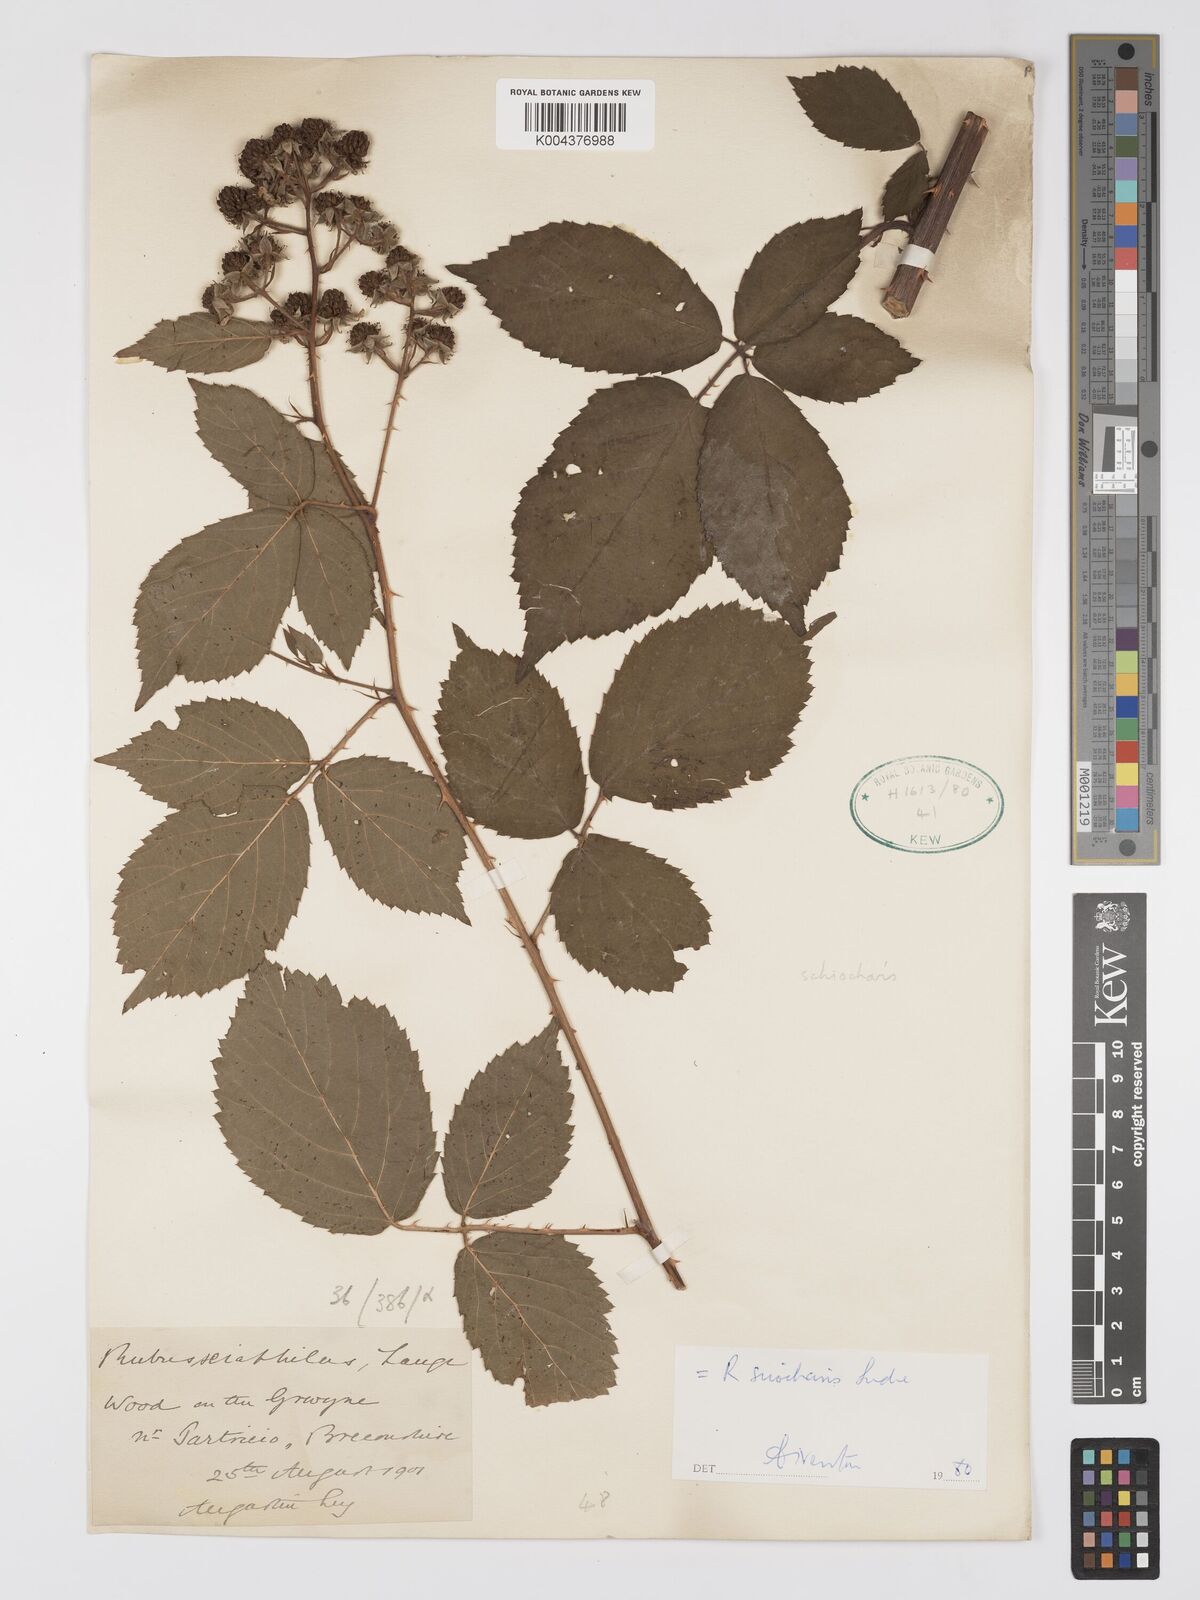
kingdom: Plantae
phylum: Tracheophyta
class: Magnoliopsida
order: Rosales
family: Rosaceae
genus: Rubus
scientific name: Rubus sciocharis
